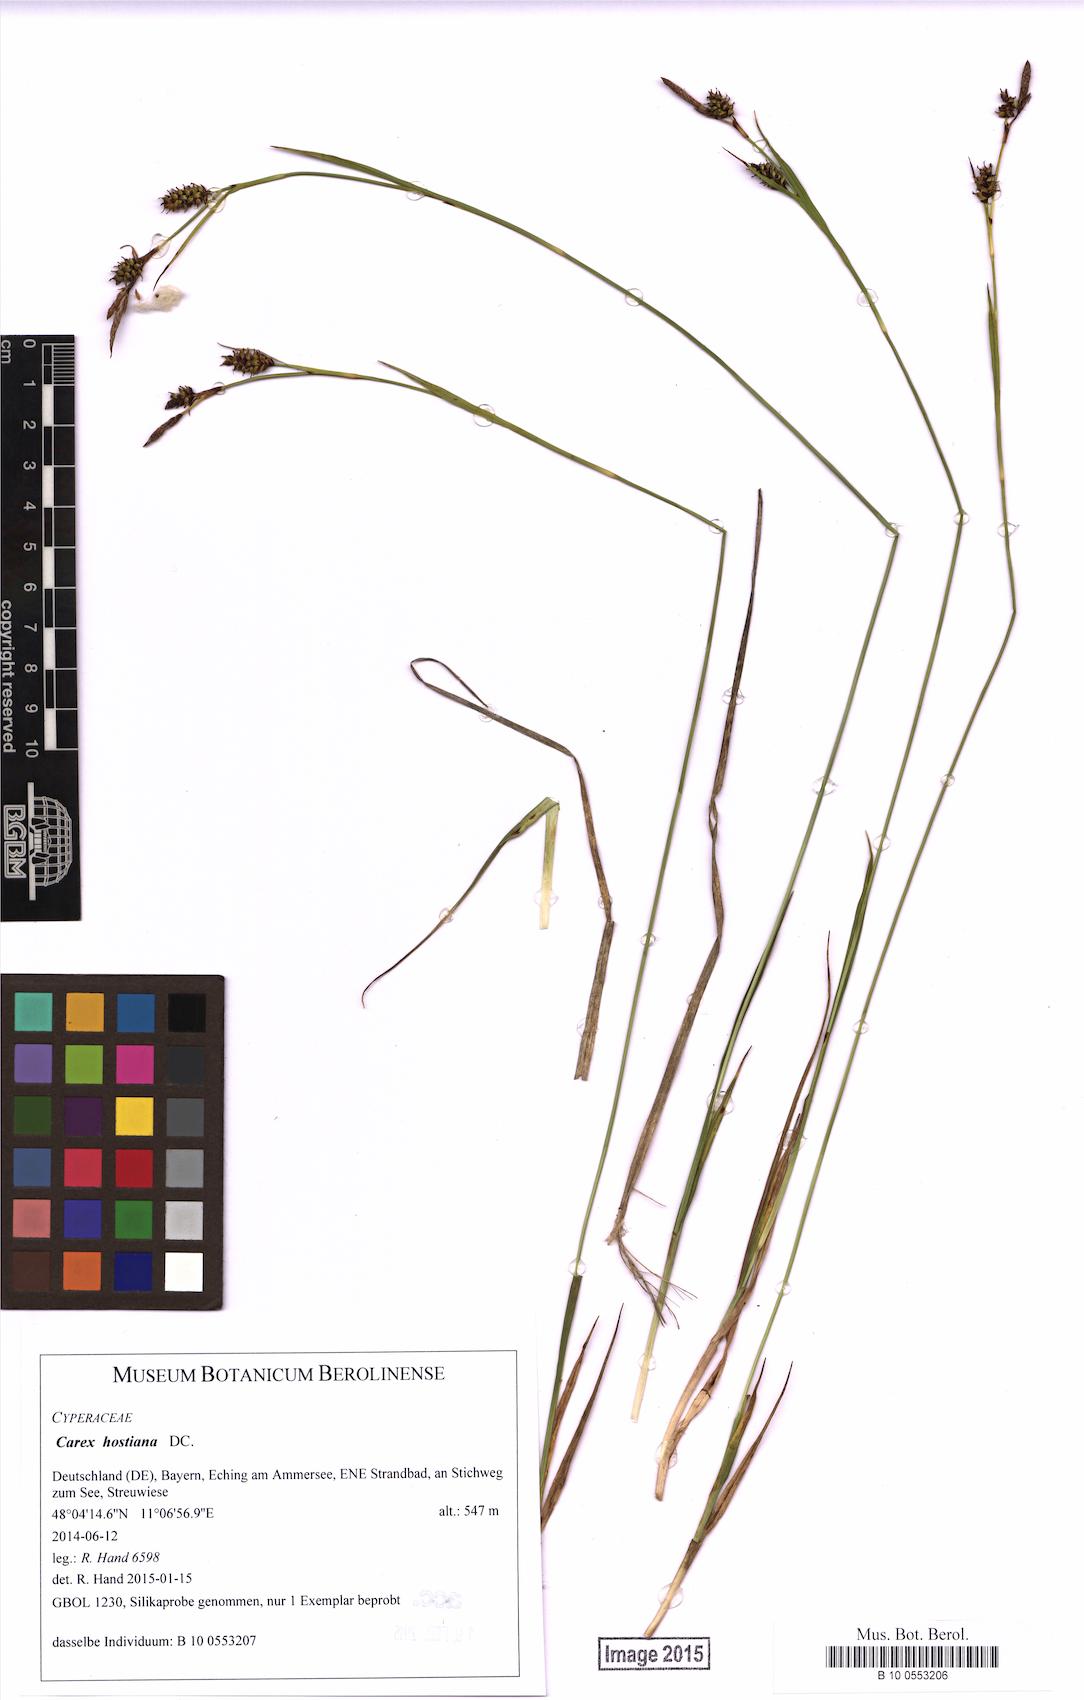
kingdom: Plantae
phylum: Tracheophyta
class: Liliopsida
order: Poales
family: Cyperaceae
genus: Carex
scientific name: Carex appropinquata
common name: Fibrous tussock-sedge
